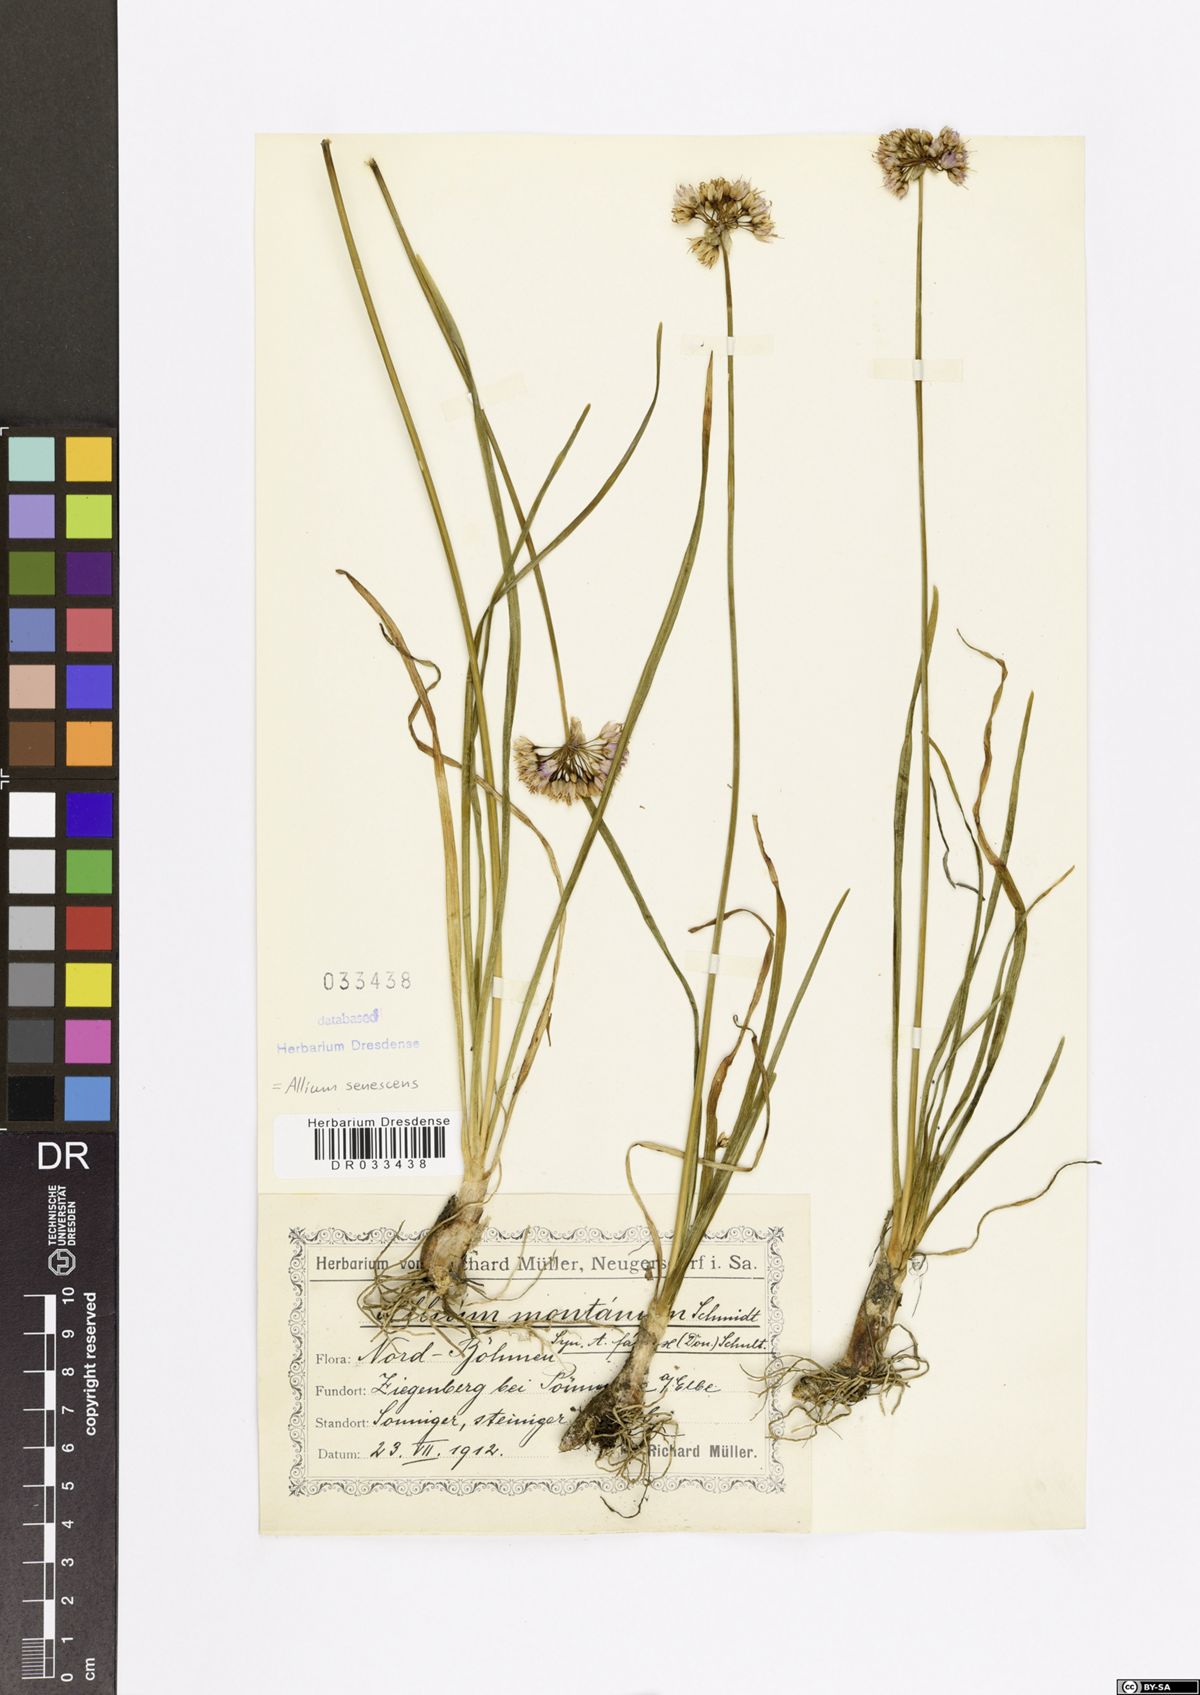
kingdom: Plantae
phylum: Tracheophyta
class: Liliopsida
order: Asparagales
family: Amaryllidaceae
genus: Allium
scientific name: Allium senescens
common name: German garlic
